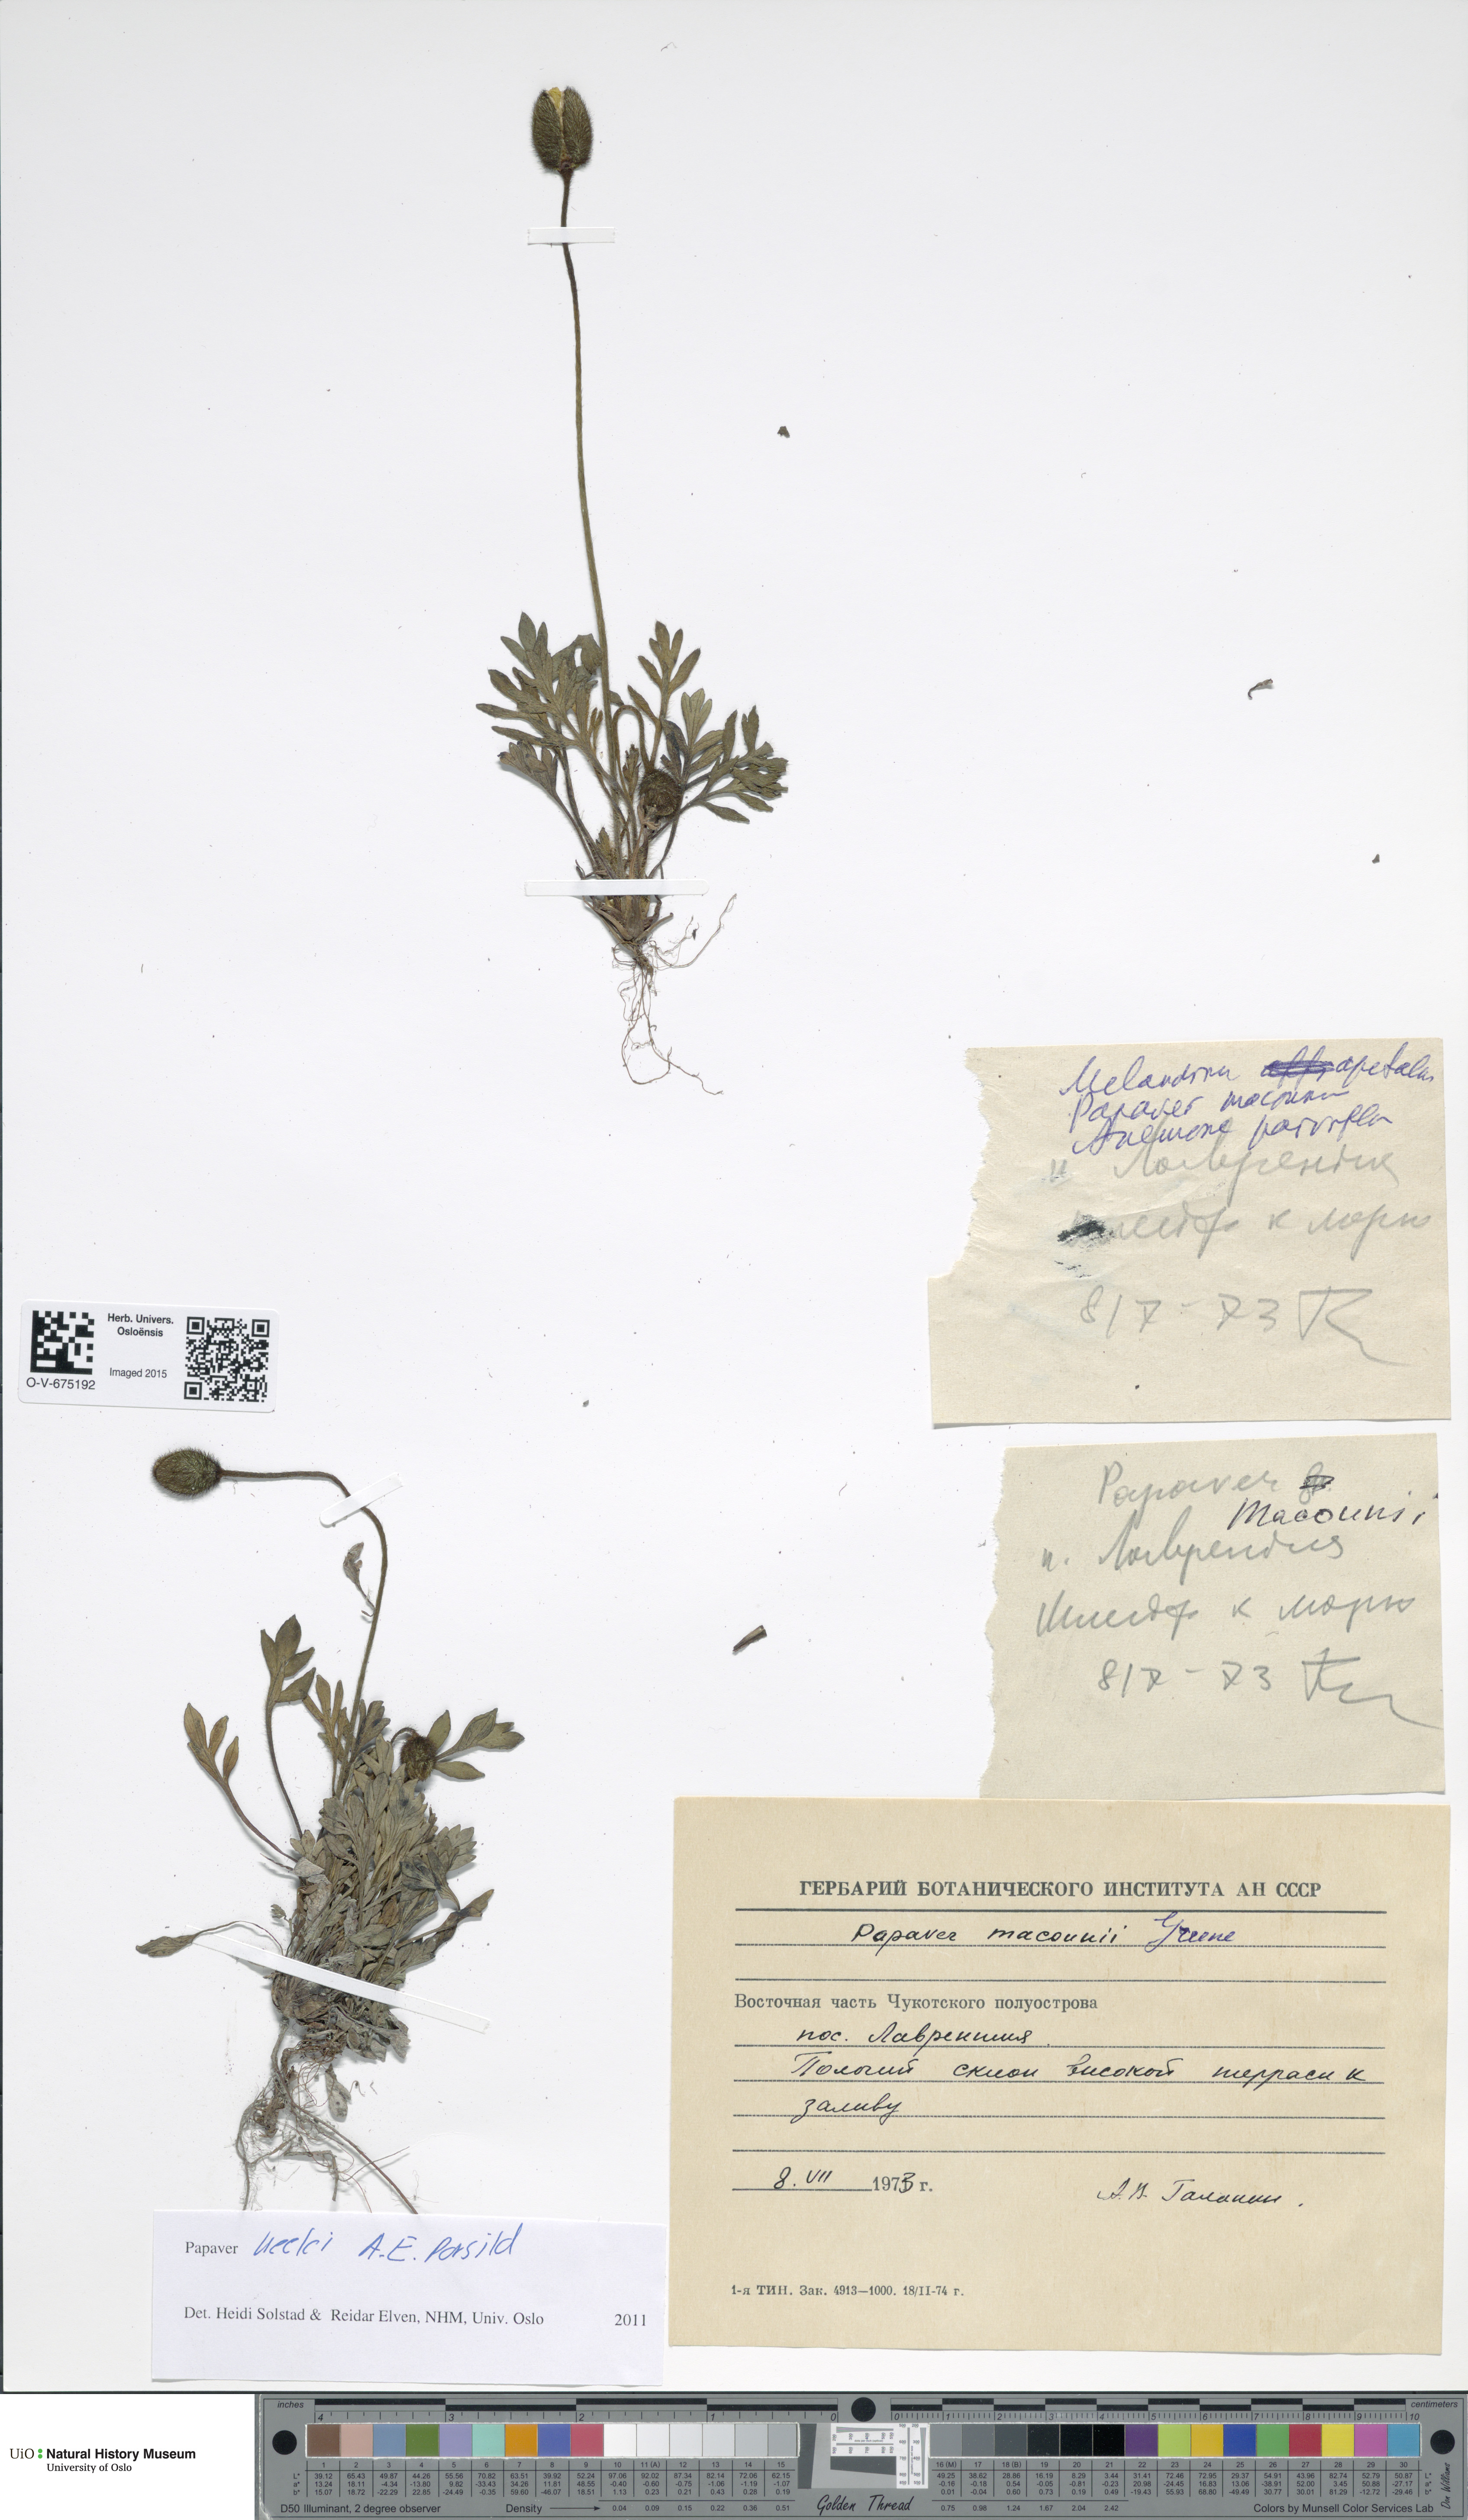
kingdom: Plantae
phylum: Tracheophyta
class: Magnoliopsida
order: Ranunculales
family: Papaveraceae
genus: Papaver
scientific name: Papaver macounii
